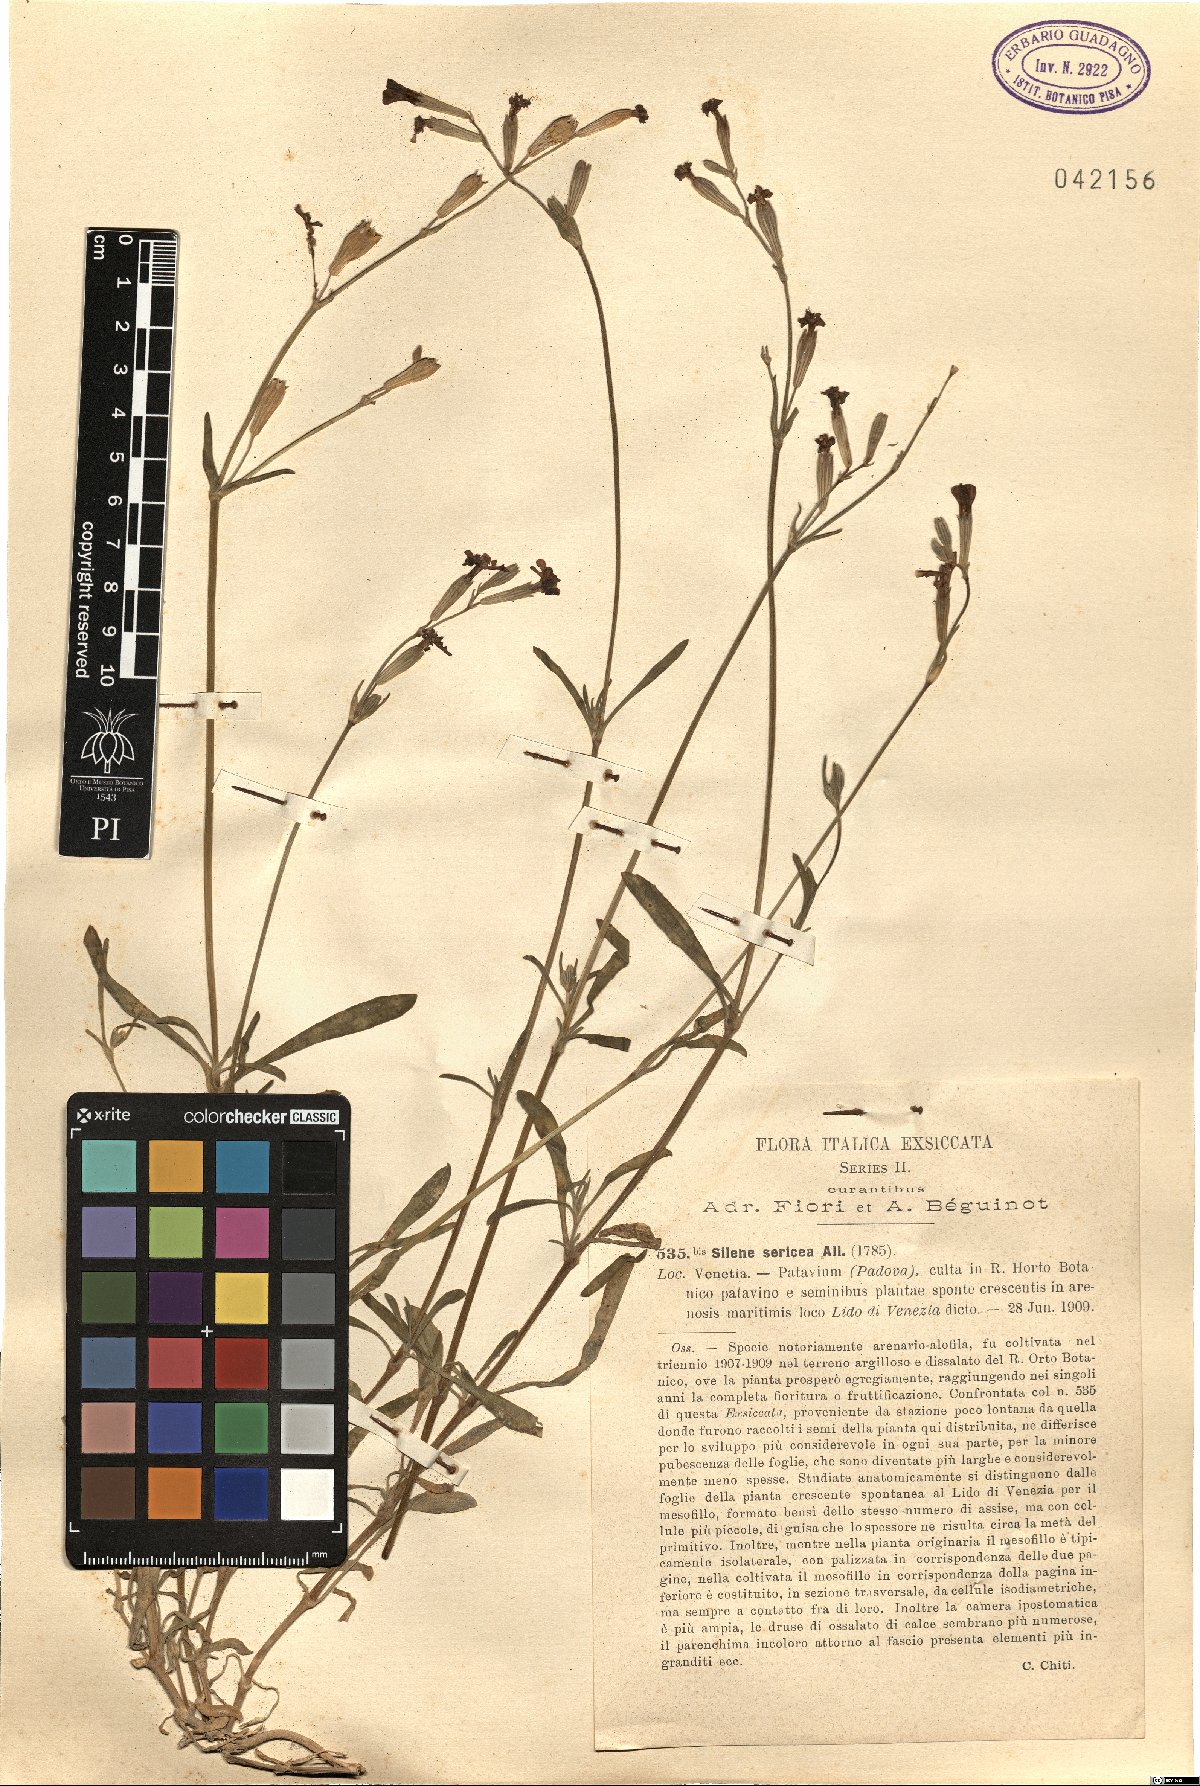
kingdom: Plantae
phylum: Tracheophyta
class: Magnoliopsida
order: Caryophyllales
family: Caryophyllaceae
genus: Silene
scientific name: Silene sericea
